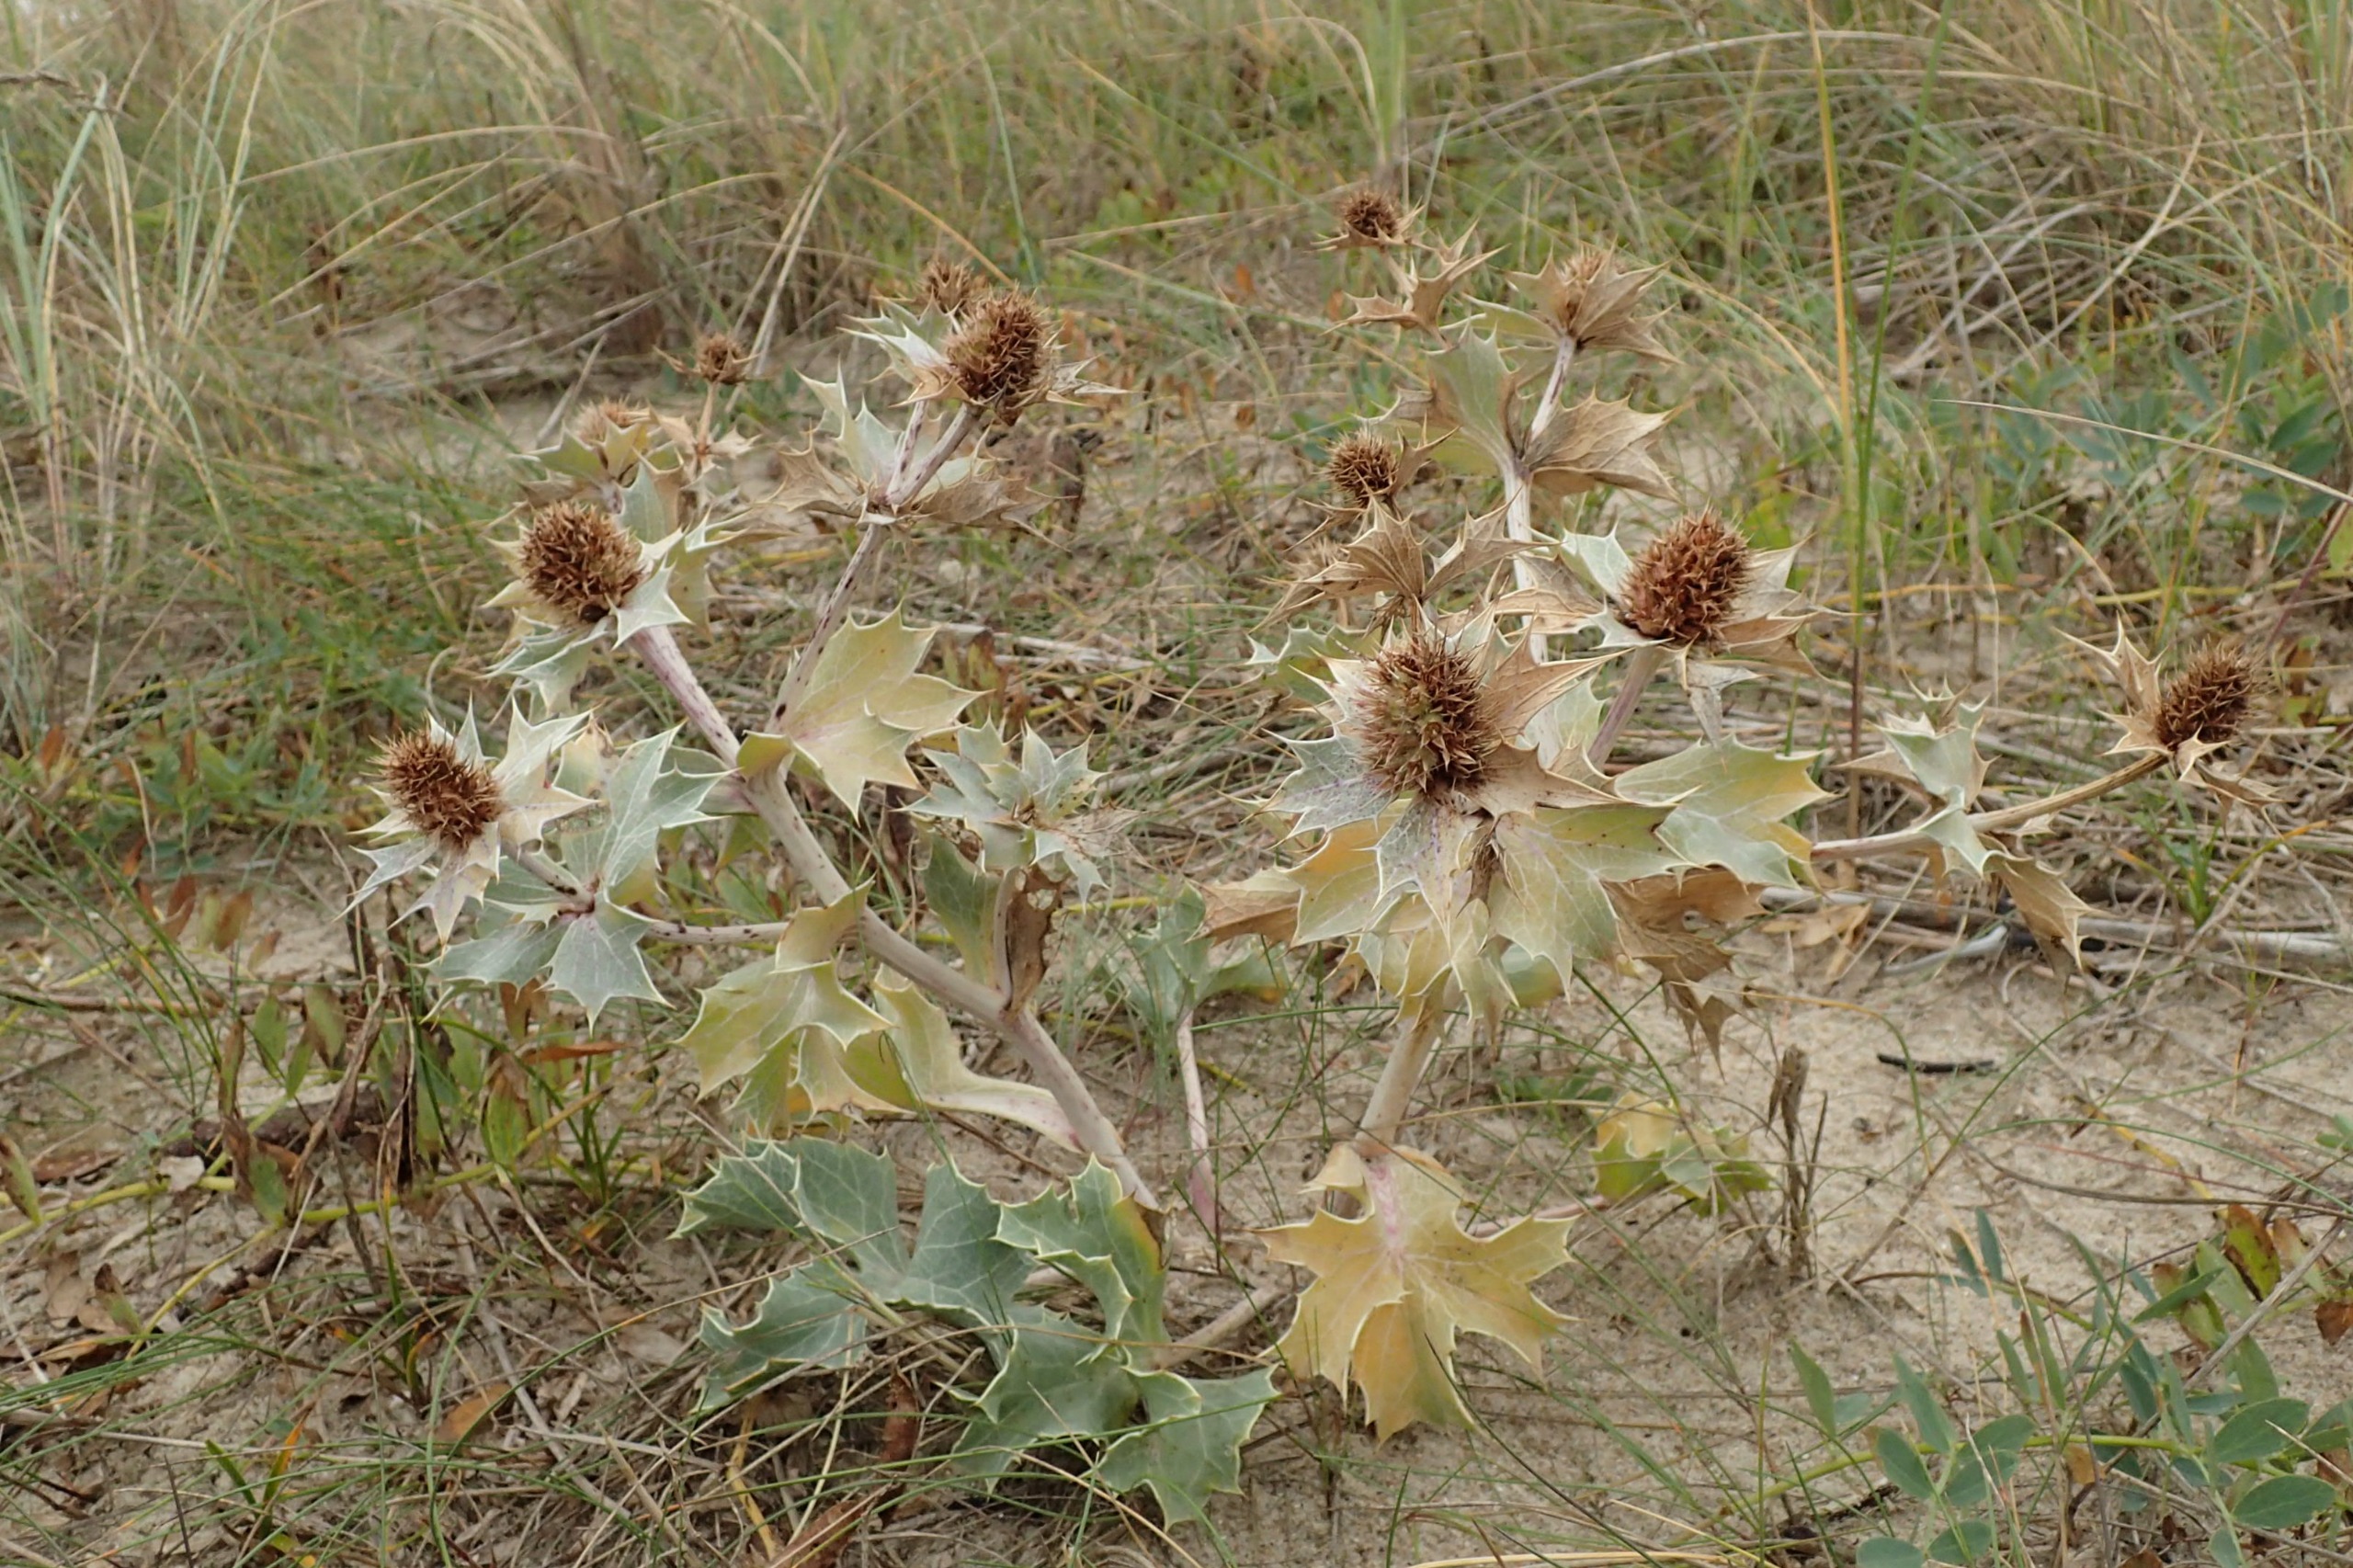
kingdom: Plantae
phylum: Tracheophyta
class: Magnoliopsida
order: Apiales
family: Apiaceae
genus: Eryngium
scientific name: Eryngium maritimum
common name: Strand-mandstro
